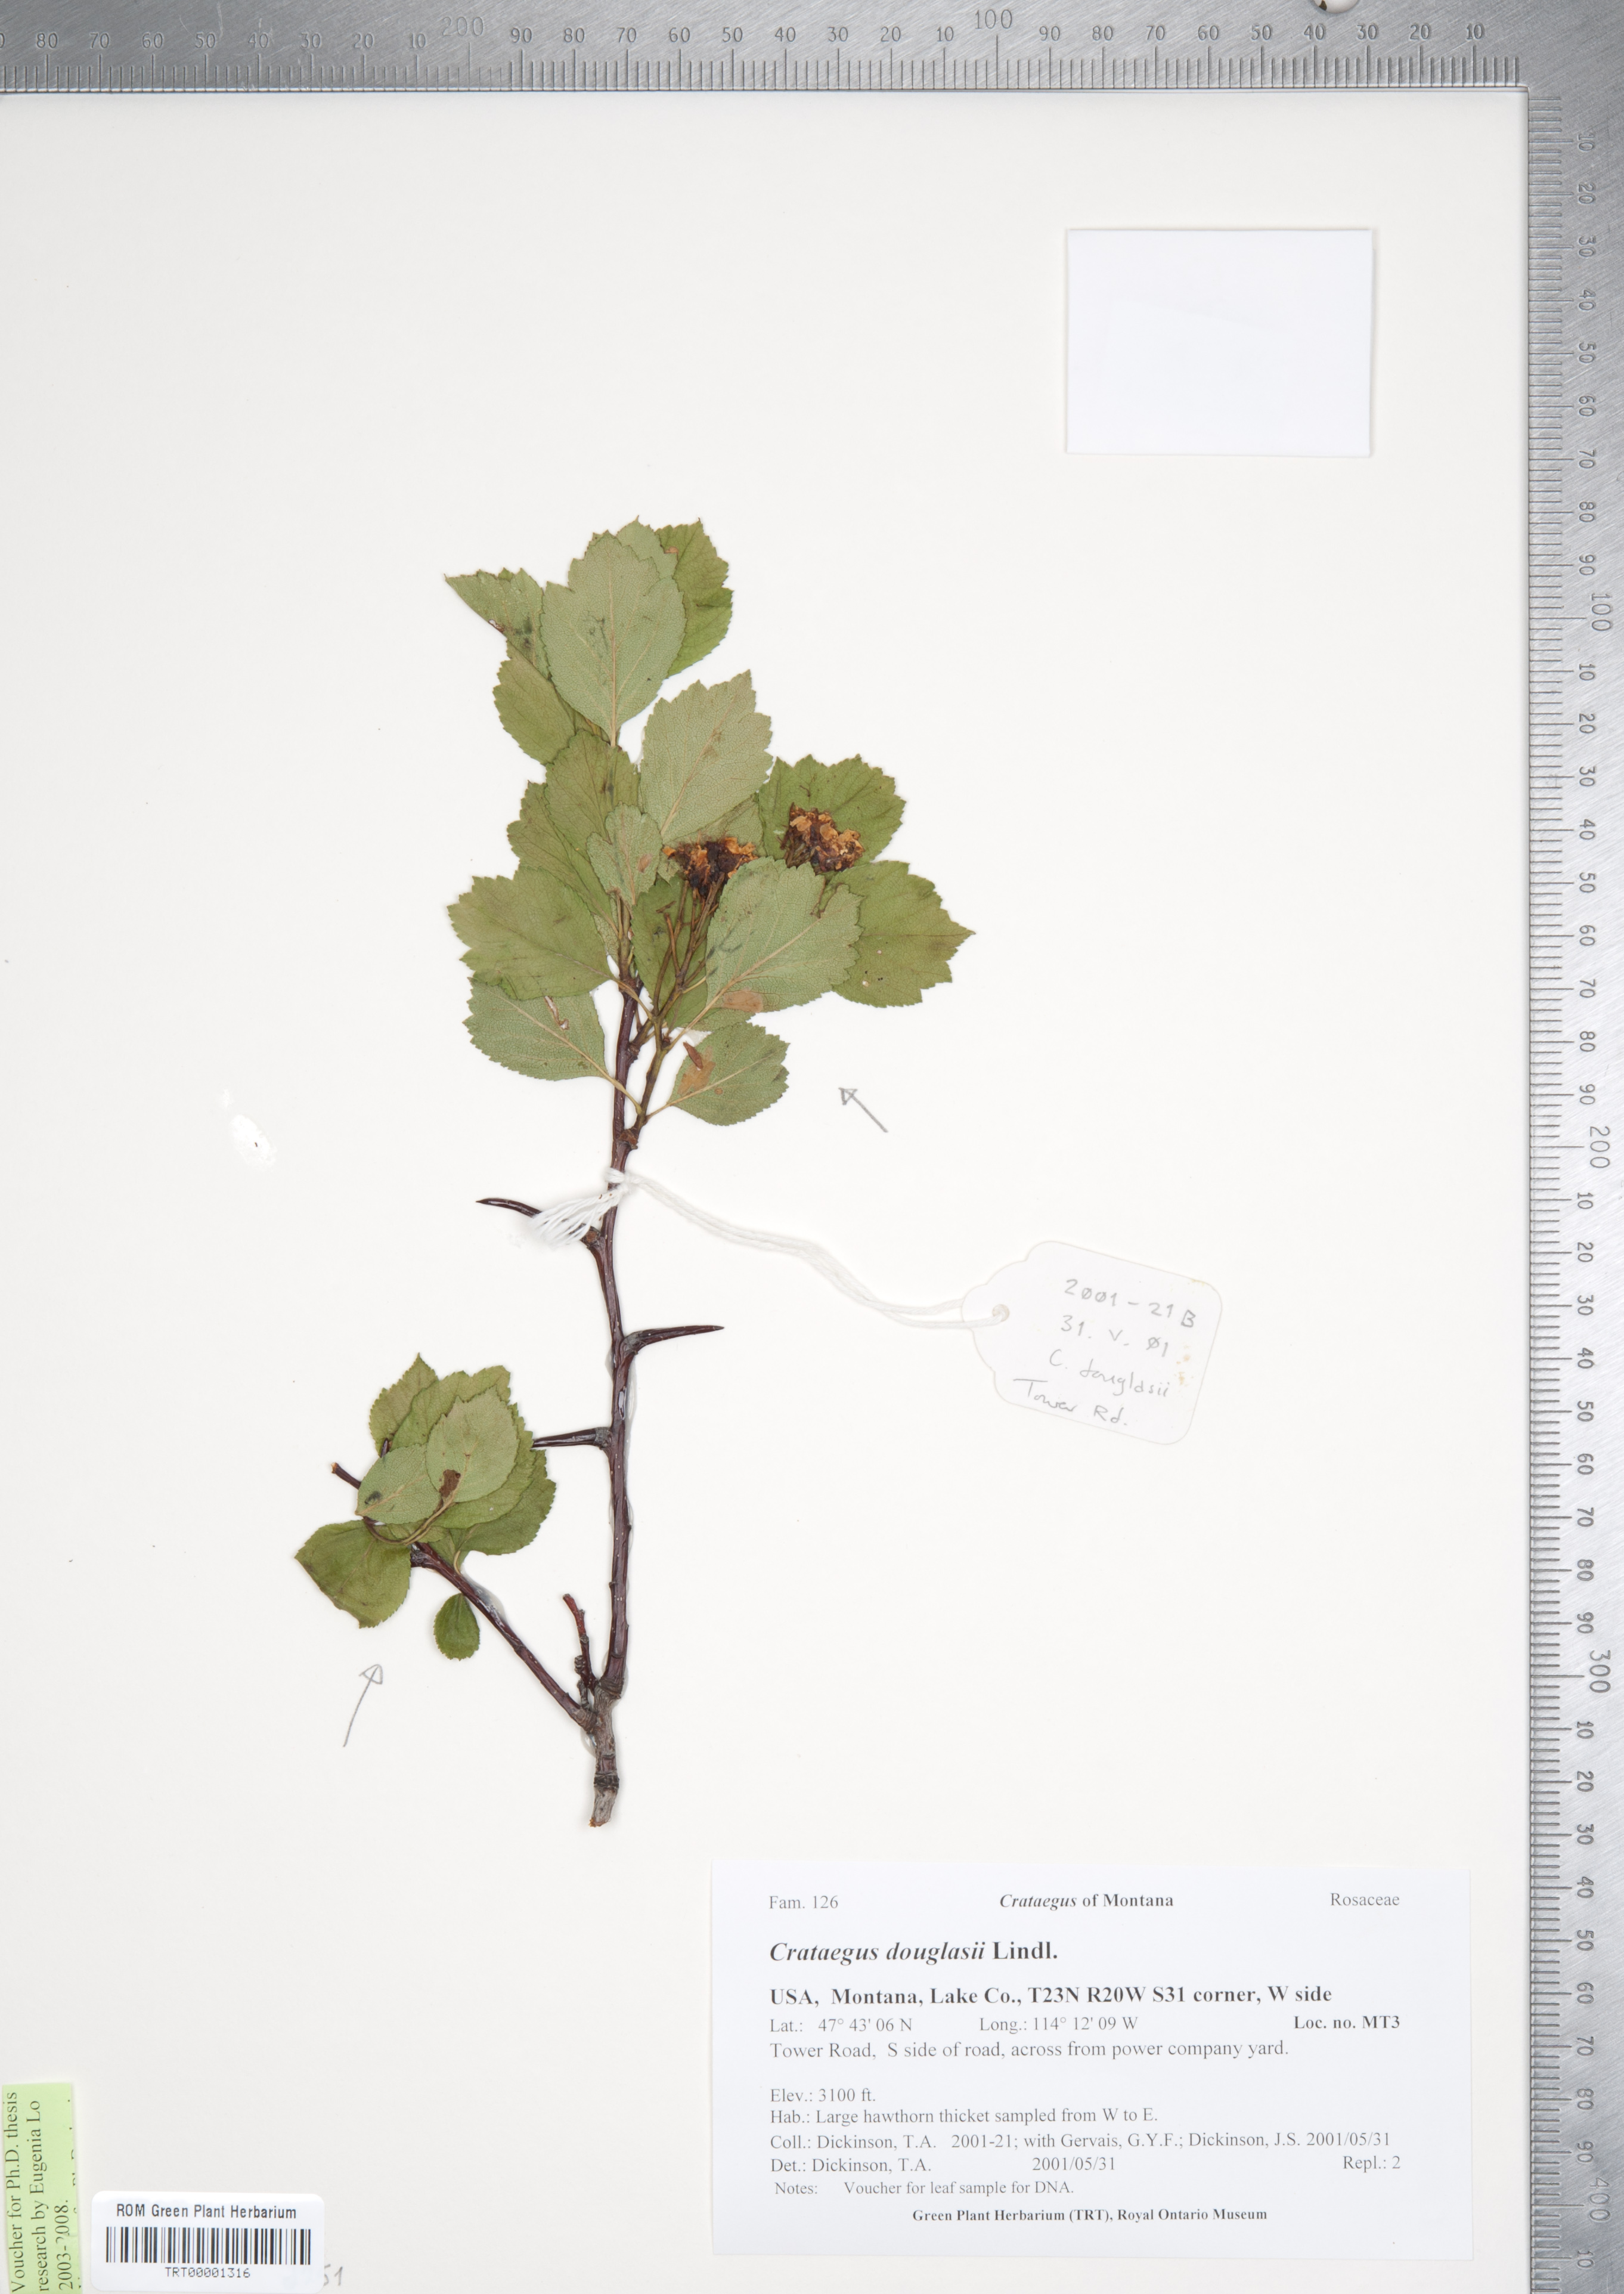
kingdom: Plantae
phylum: Tracheophyta
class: Magnoliopsida
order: Rosales
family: Rosaceae
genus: Crataegus
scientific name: Crataegus douglasii
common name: Black hawthorn
